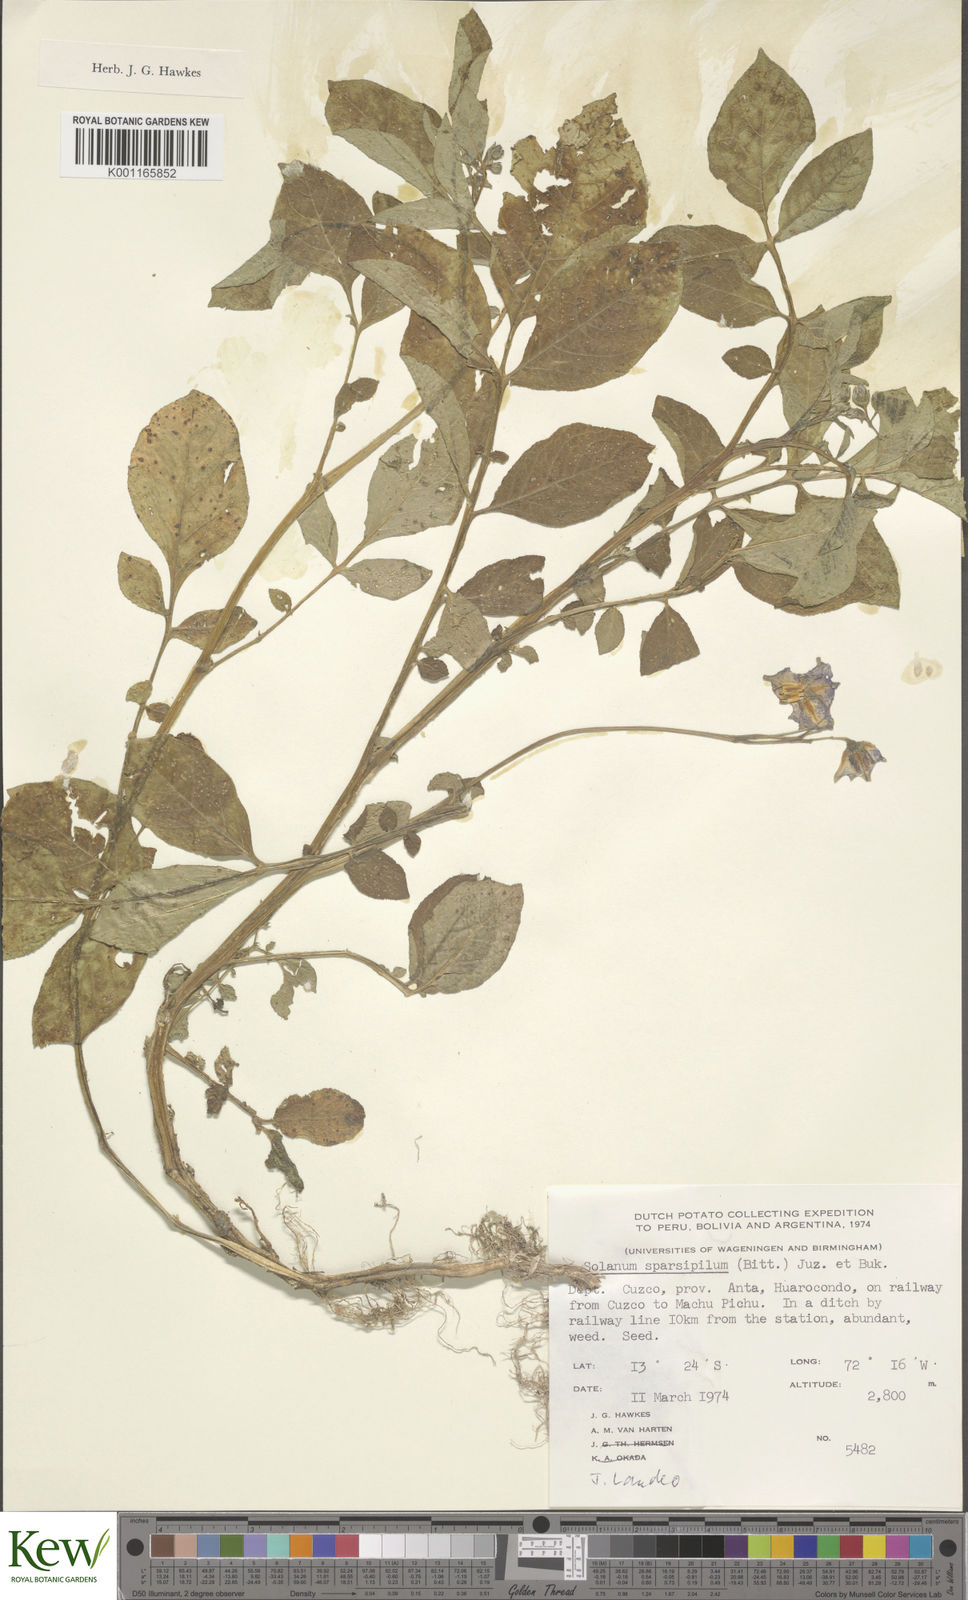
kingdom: Plantae
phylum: Tracheophyta
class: Magnoliopsida
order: Solanales
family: Solanaceae
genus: Solanum
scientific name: Solanum brevicaule
